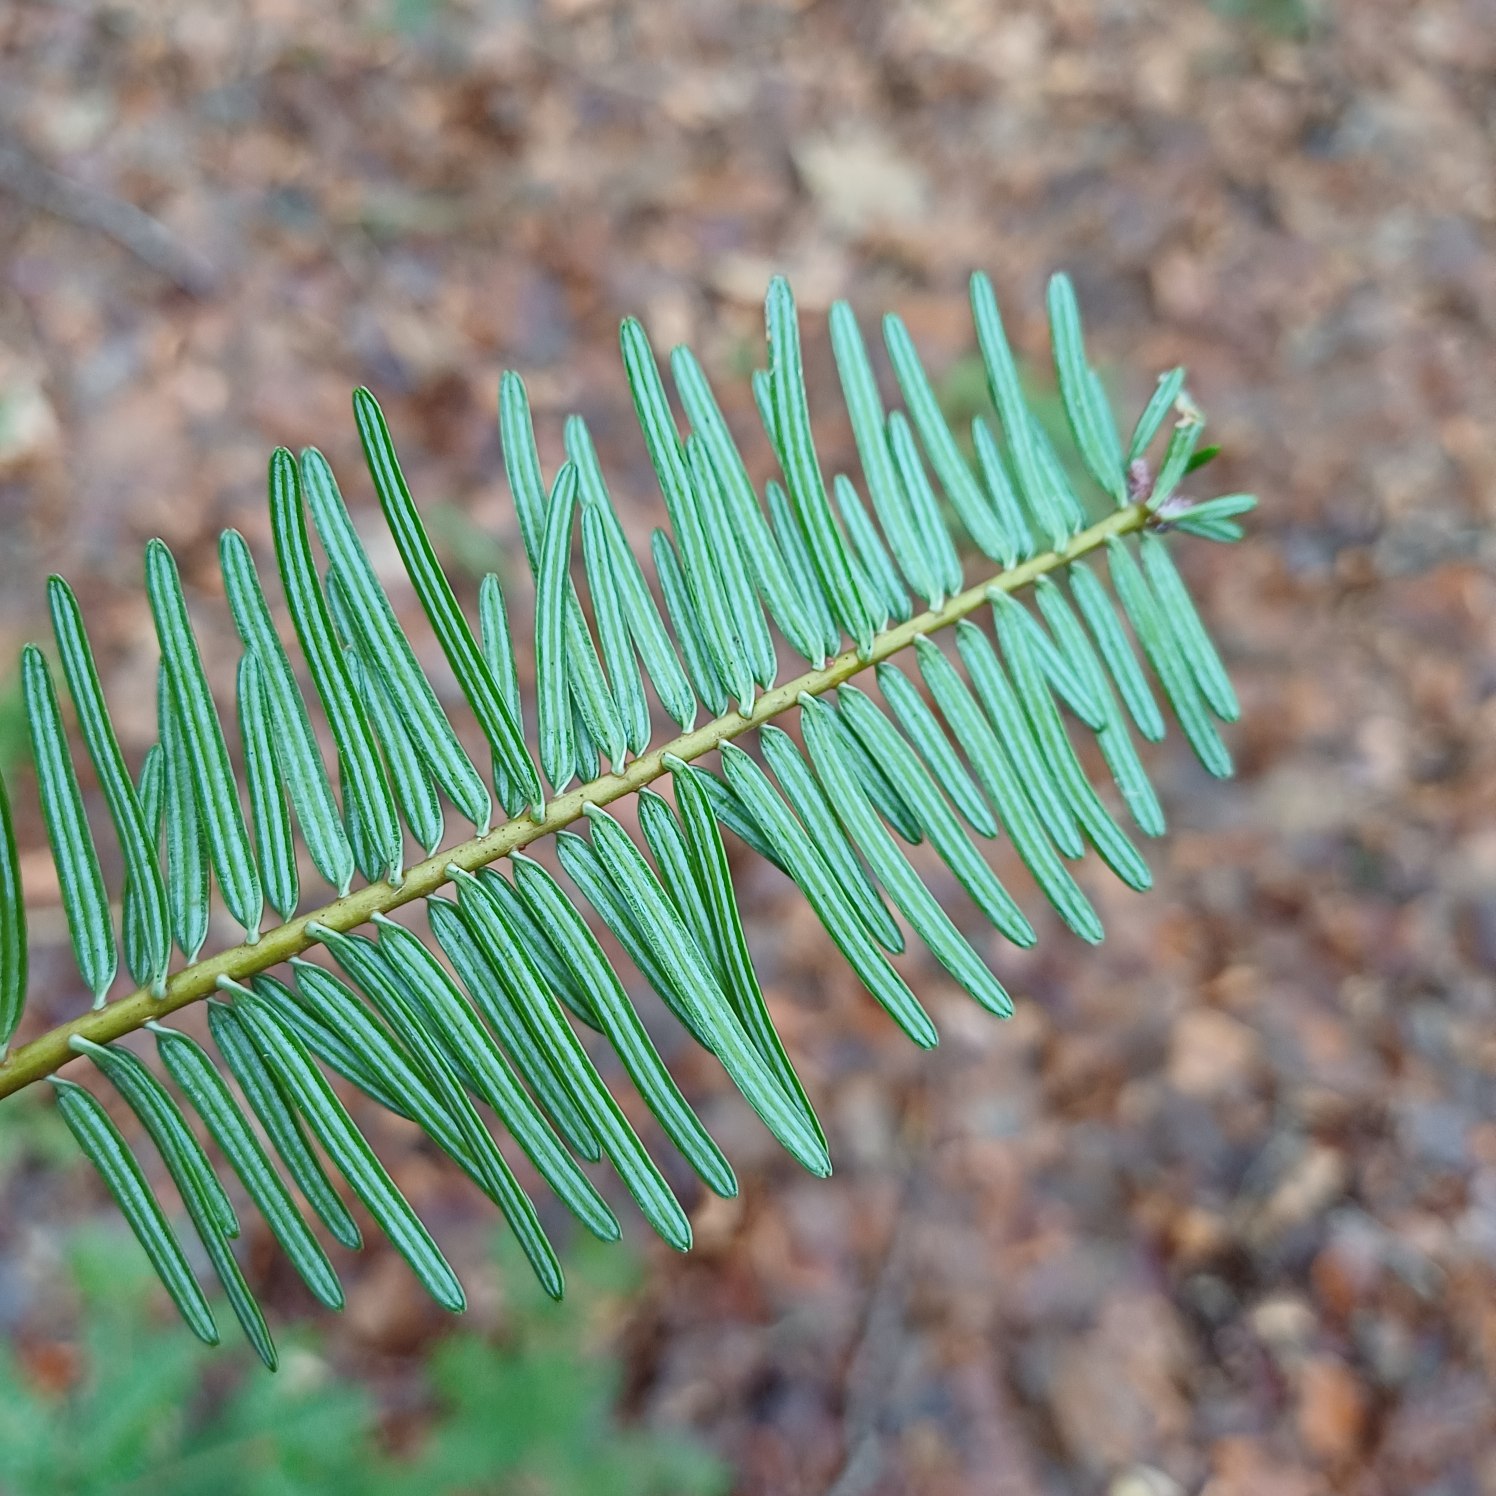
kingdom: Plantae
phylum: Tracheophyta
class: Pinopsida
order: Pinales
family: Pinaceae
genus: Abies
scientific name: Abies grandis
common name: Kæmpegran
